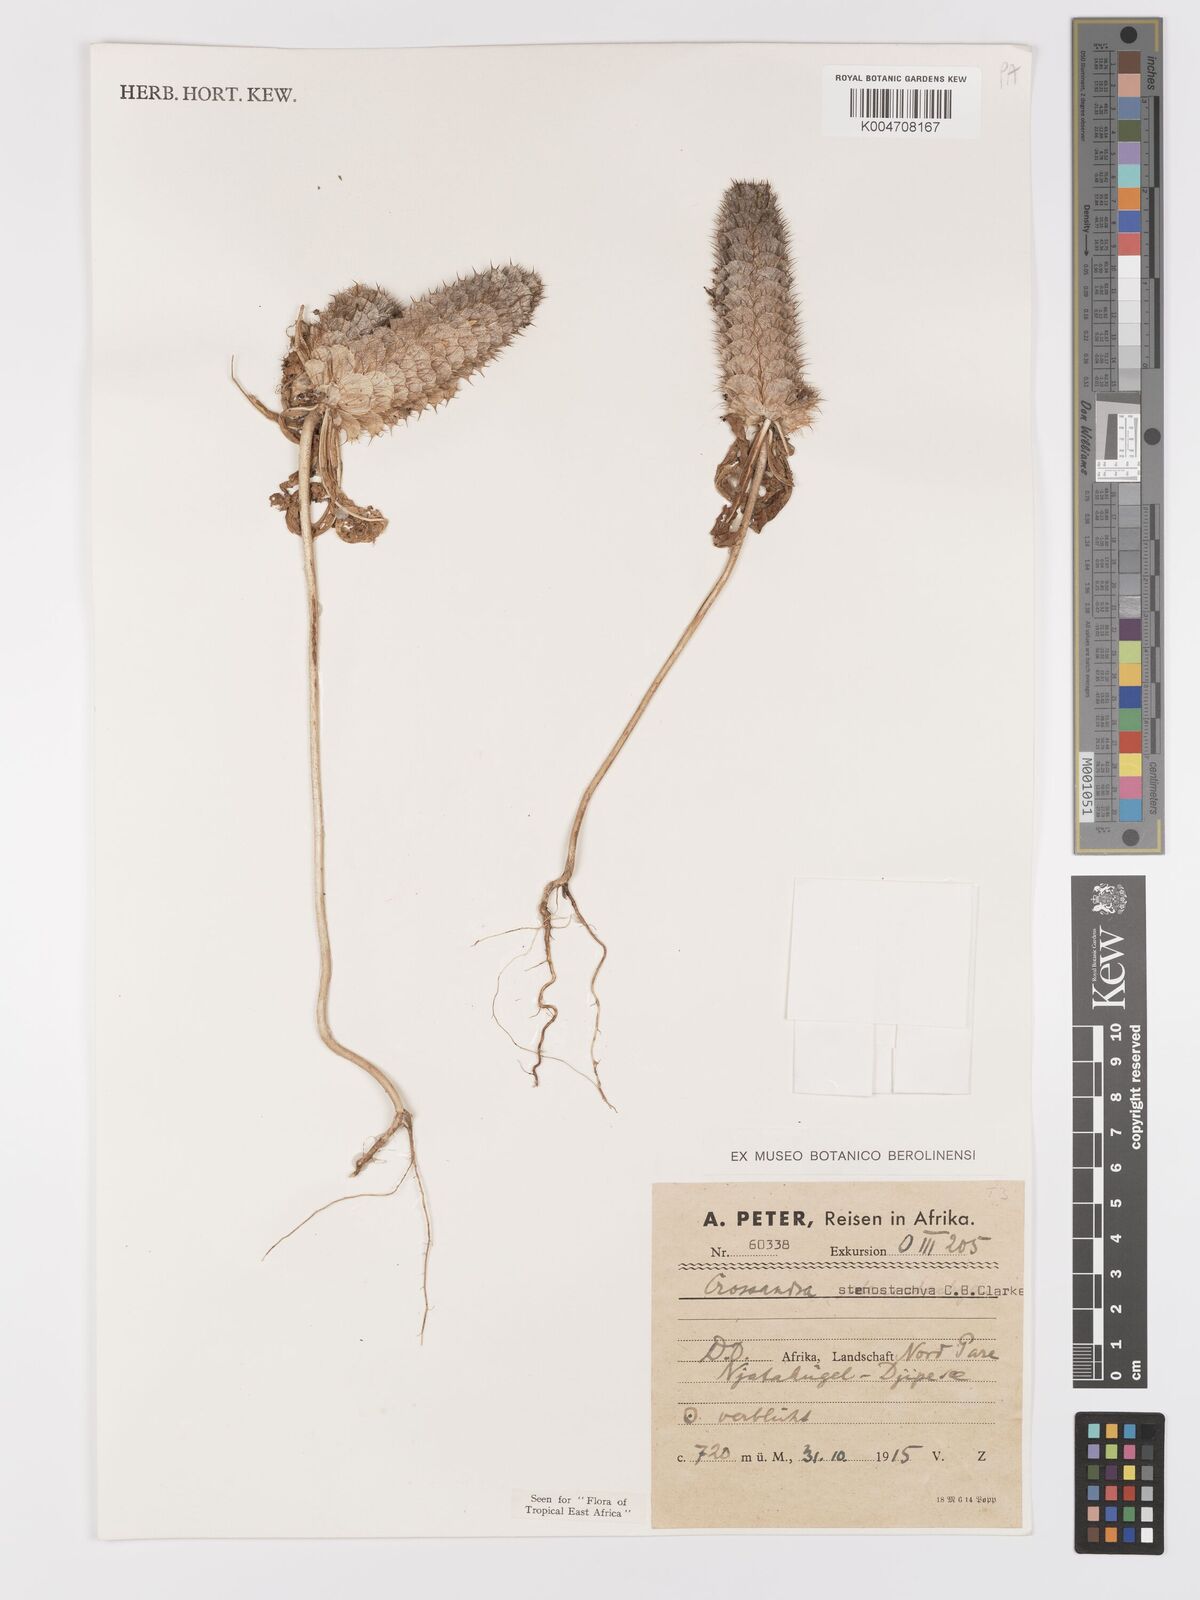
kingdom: Plantae
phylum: Tracheophyta
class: Magnoliopsida
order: Lamiales
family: Acanthaceae
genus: Crossandra
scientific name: Crossandra stenostachya
